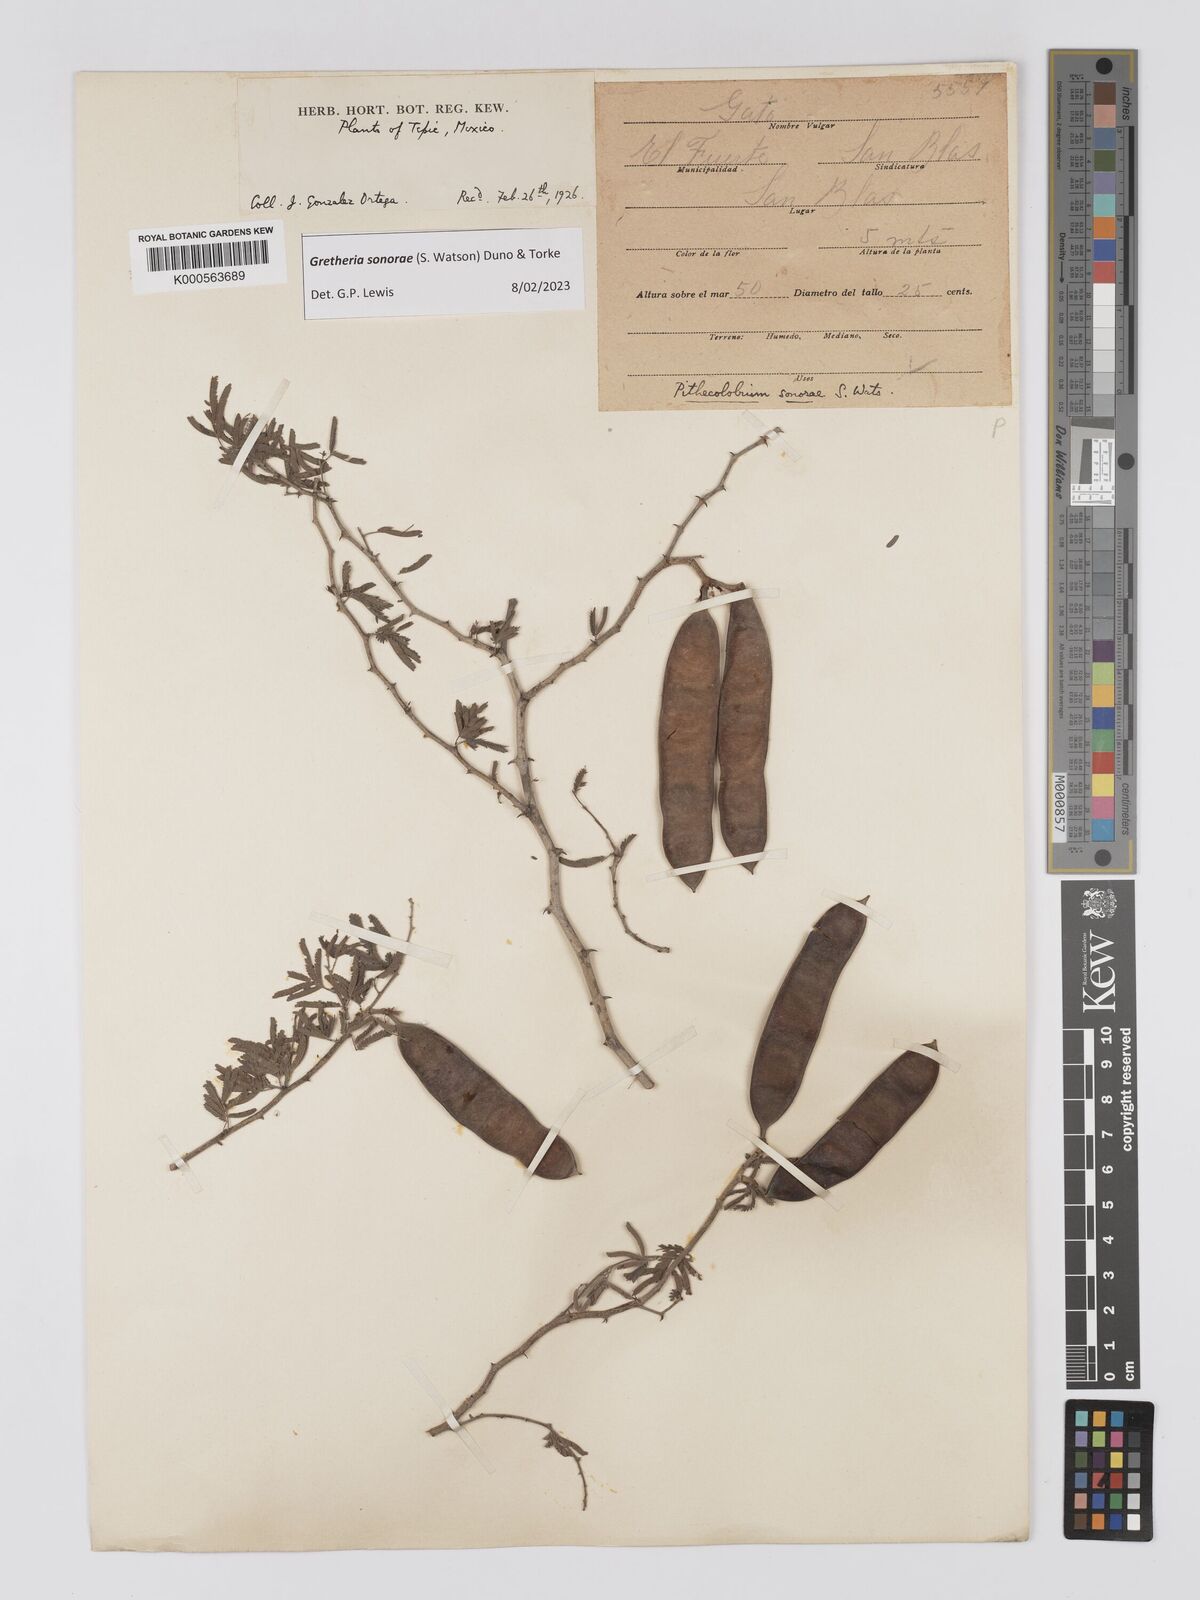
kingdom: Plantae
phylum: Tracheophyta
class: Magnoliopsida
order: Fabales
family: Fabaceae
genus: Havardia
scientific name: Havardia sonorae
